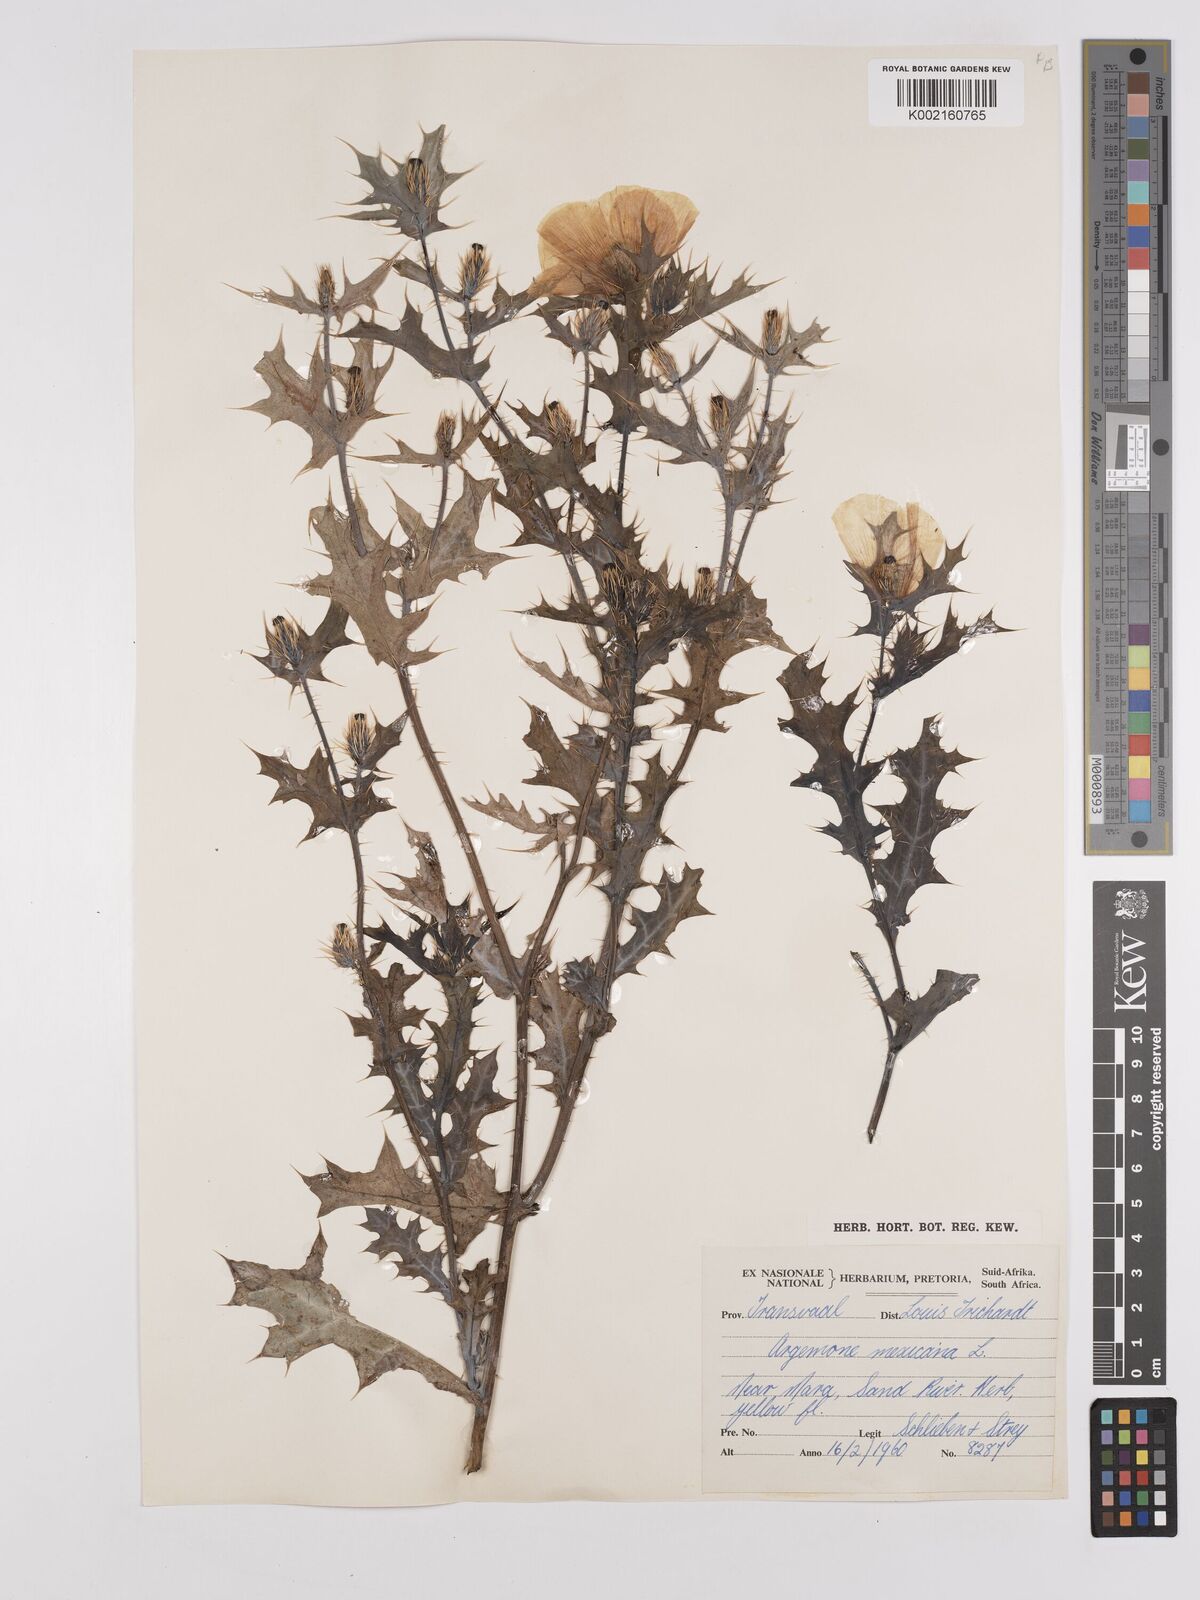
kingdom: Plantae
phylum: Tracheophyta
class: Magnoliopsida
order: Ranunculales
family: Papaveraceae
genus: Argemone
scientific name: Argemone mexicana
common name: Mexican poppy
